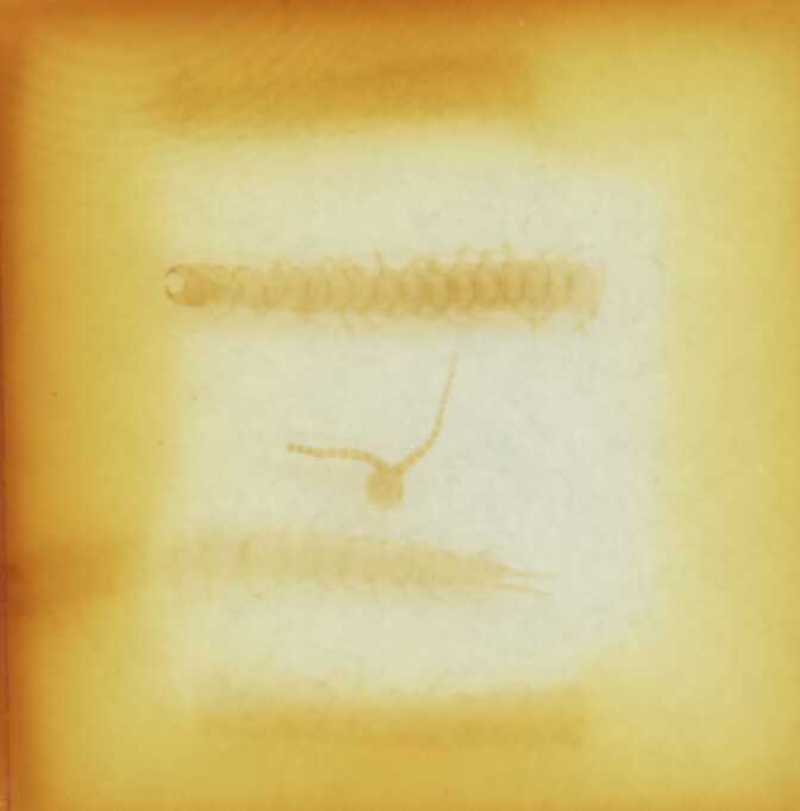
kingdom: Animalia
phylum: Arthropoda
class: Chilopoda
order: Geophilomorpha
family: Geophilidae
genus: Clinopodes
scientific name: Clinopodes trebevicensis
